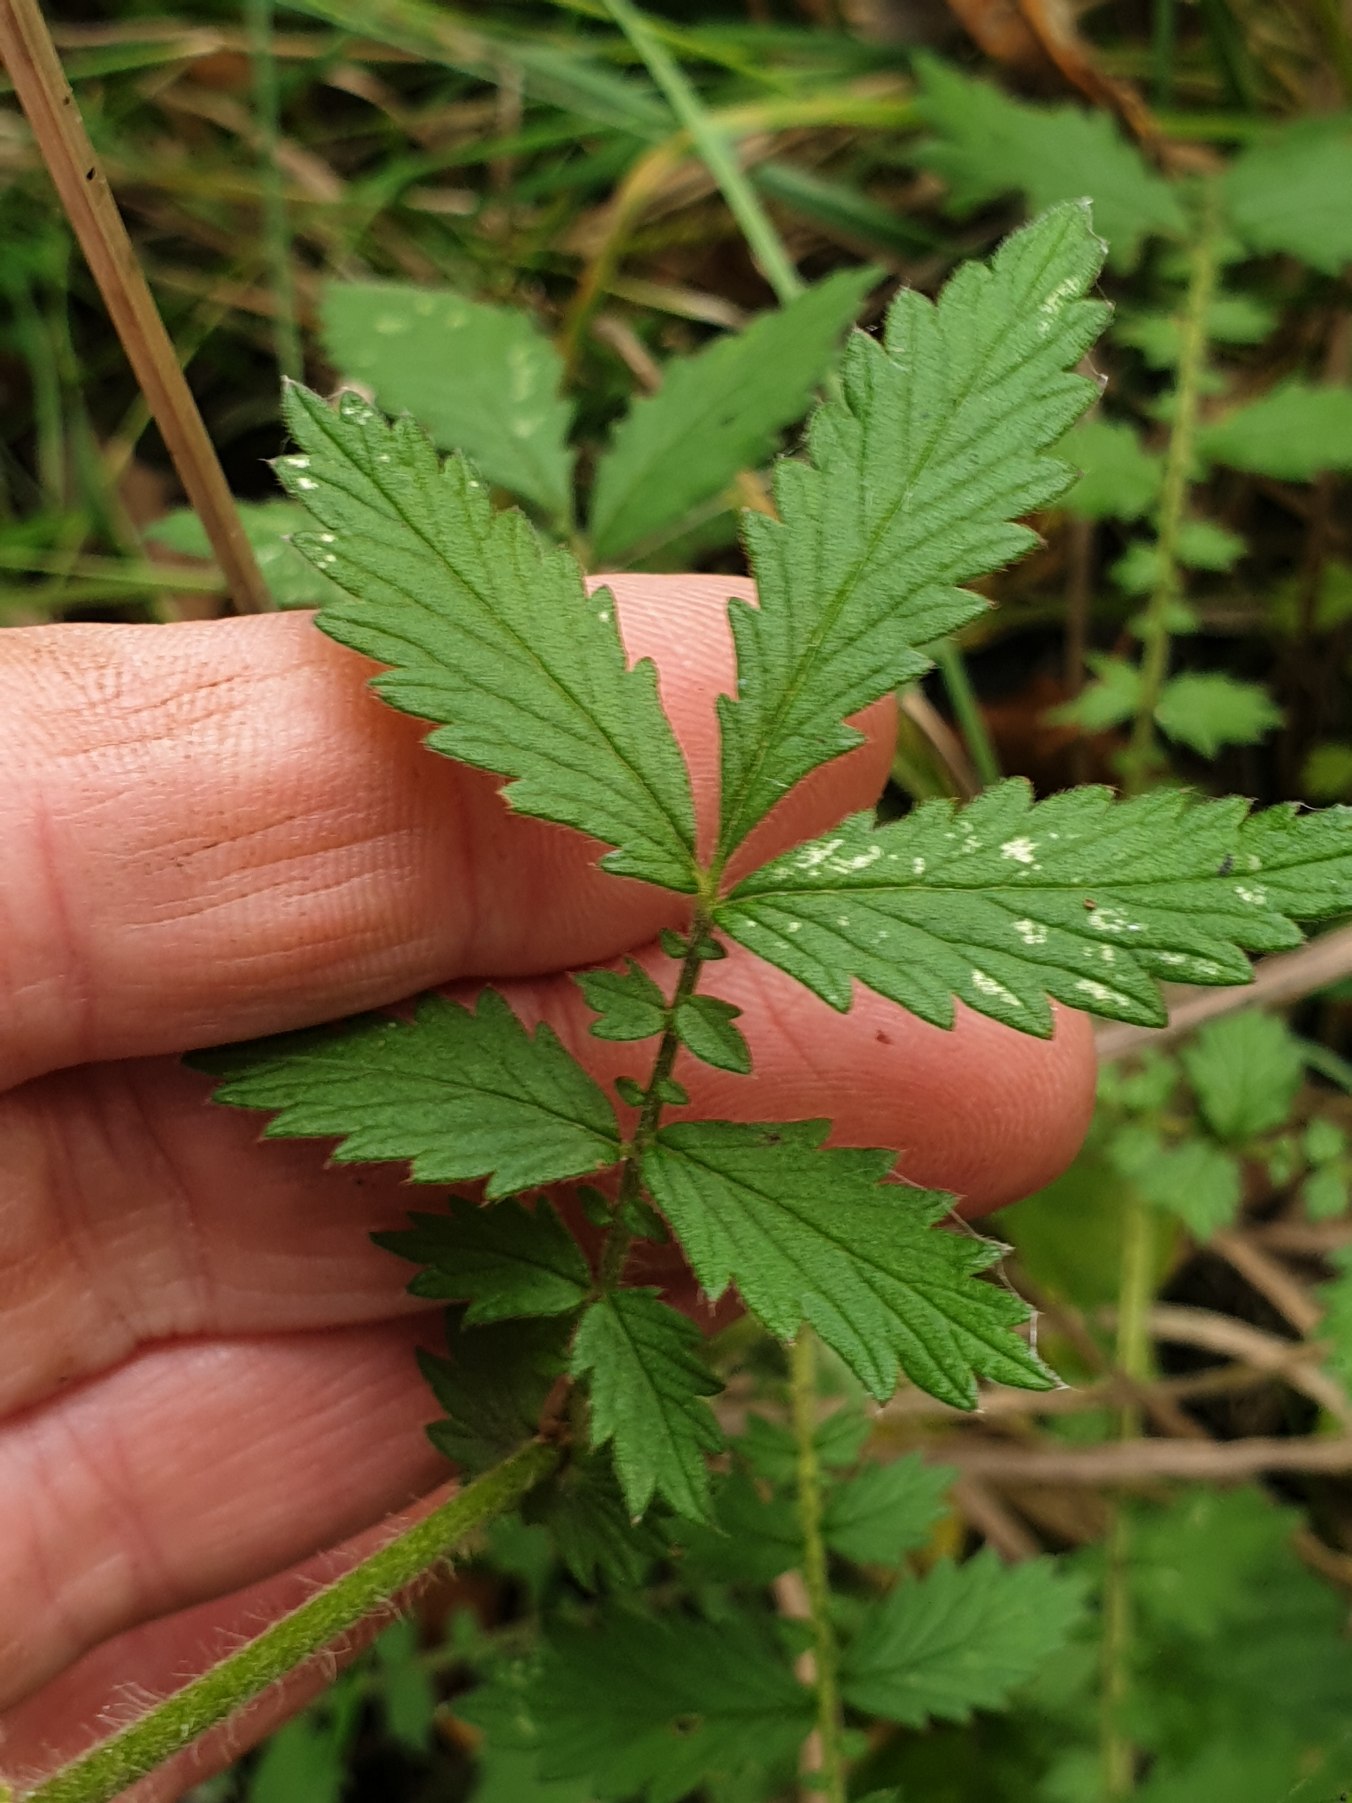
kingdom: Plantae
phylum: Tracheophyta
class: Magnoliopsida
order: Rosales
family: Rosaceae
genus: Agrimonia
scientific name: Agrimonia eupatoria
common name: Almindelig agermåne
